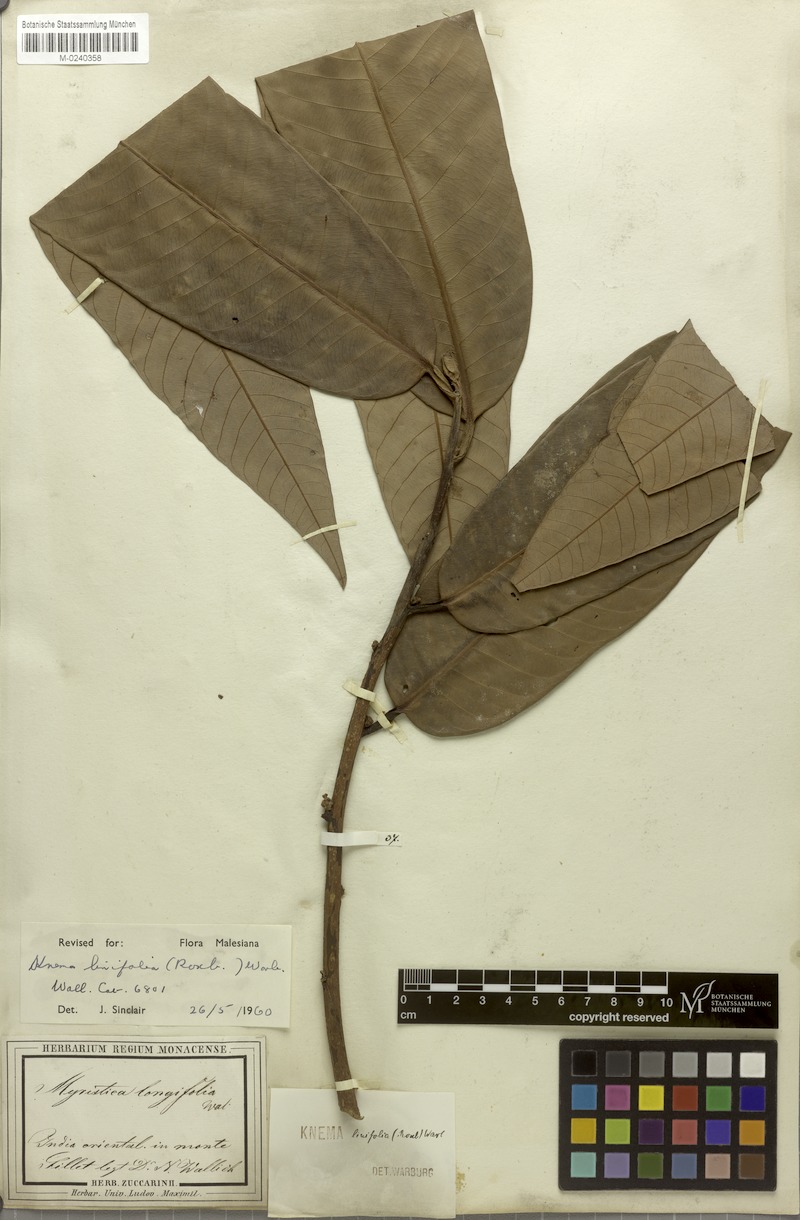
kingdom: Plantae
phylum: Tracheophyta
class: Magnoliopsida
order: Magnoliales
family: Myristicaceae
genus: Knema
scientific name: Knema linifolia
